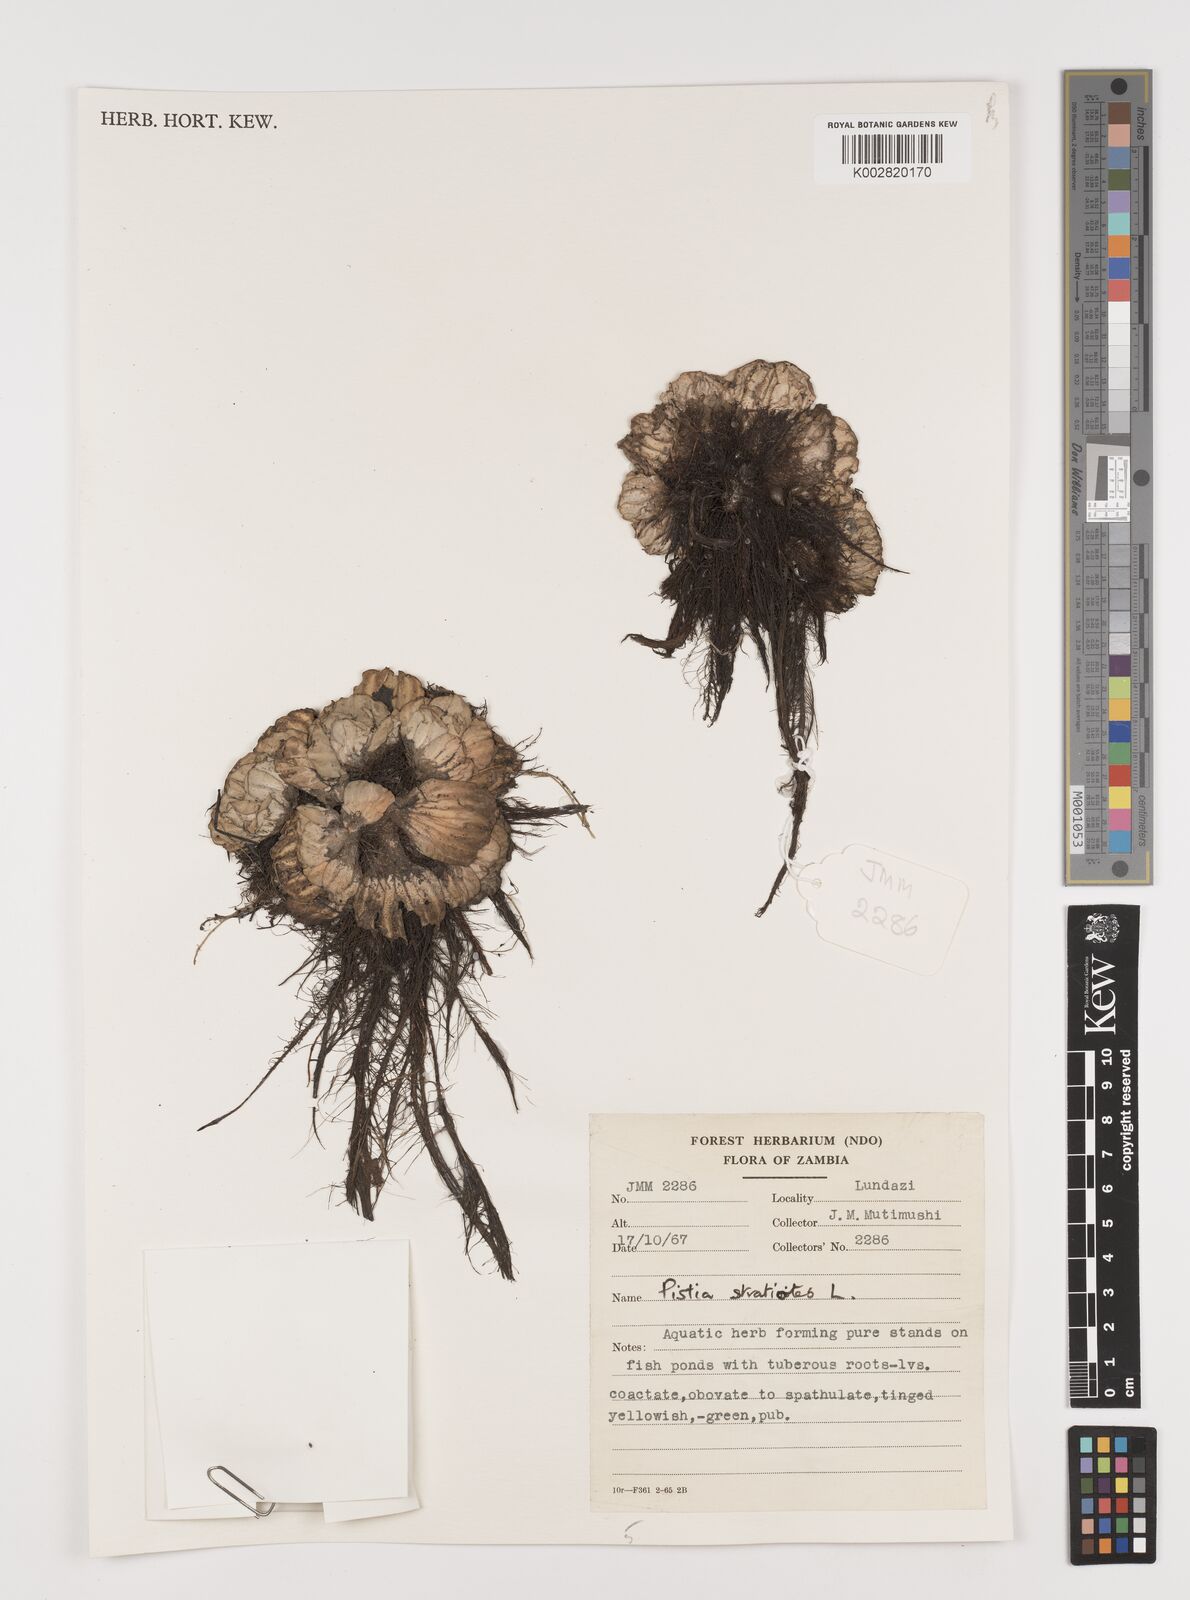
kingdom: Plantae
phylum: Tracheophyta
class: Liliopsida
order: Alismatales
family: Araceae
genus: Pistia
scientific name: Pistia stratiotes
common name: Water lettuce
